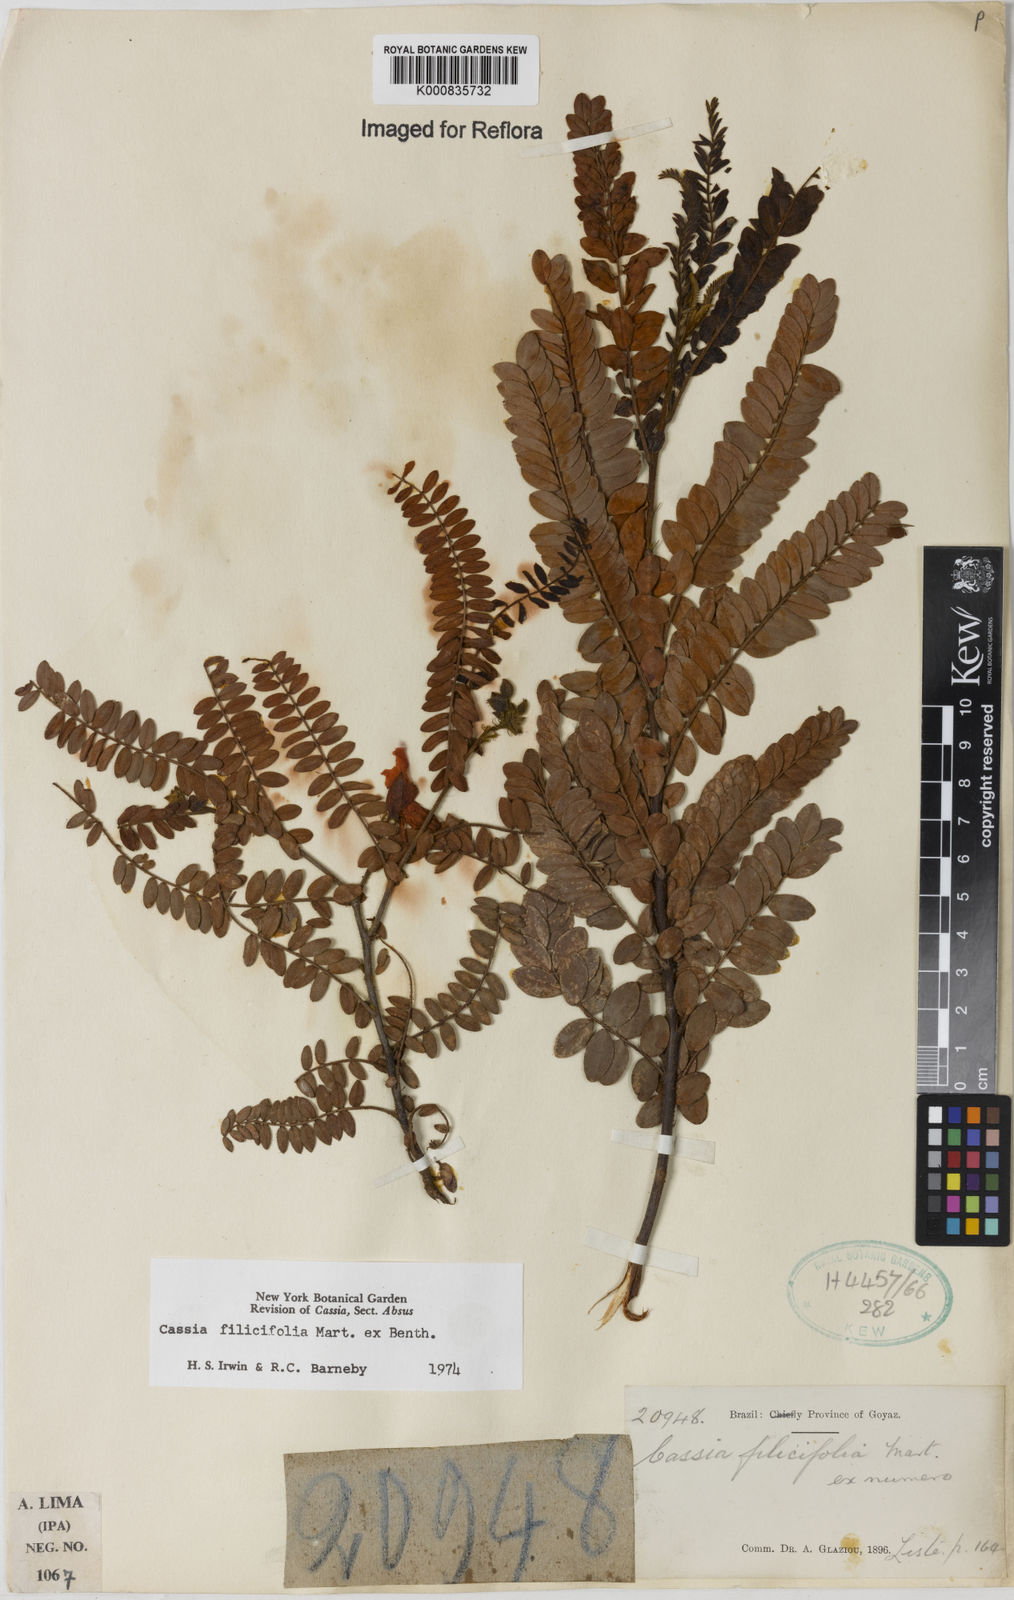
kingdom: Plantae
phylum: Tracheophyta
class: Magnoliopsida
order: Fabales
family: Fabaceae
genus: Chamaecrista
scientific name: Chamaecrista filicifolia
